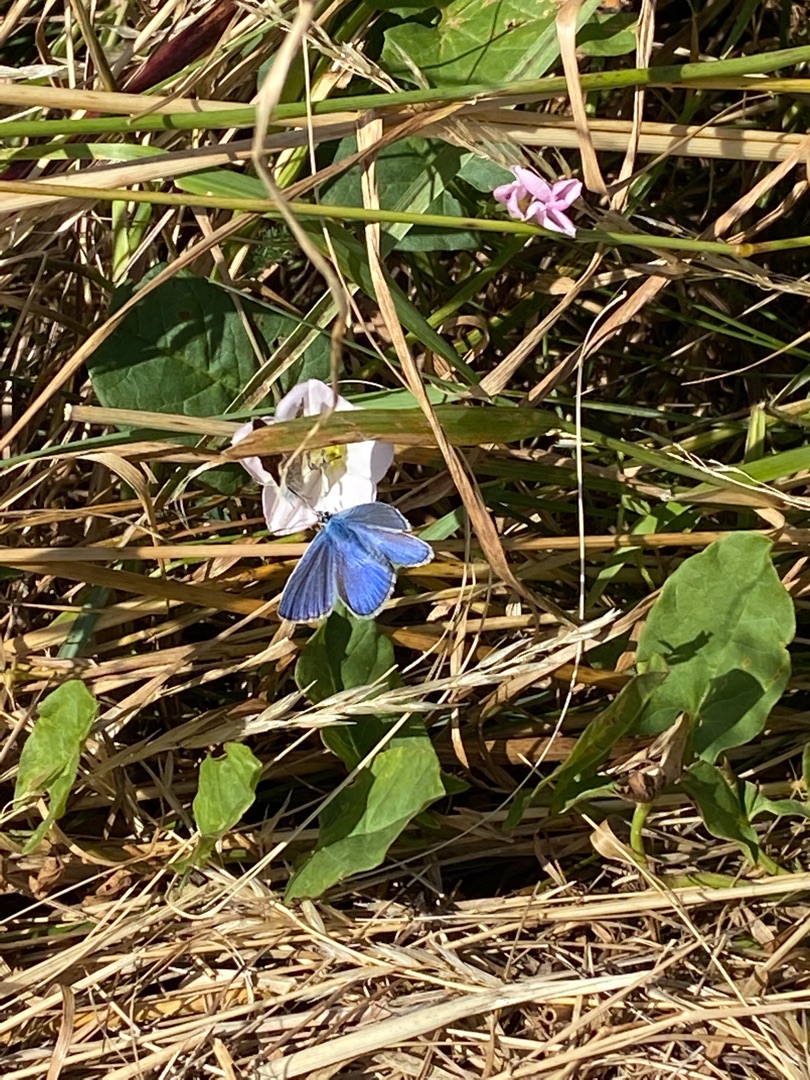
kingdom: Animalia
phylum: Arthropoda
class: Insecta
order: Lepidoptera
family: Lycaenidae
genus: Polyommatus
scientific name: Polyommatus icarus
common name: Almindelig blåfugl
